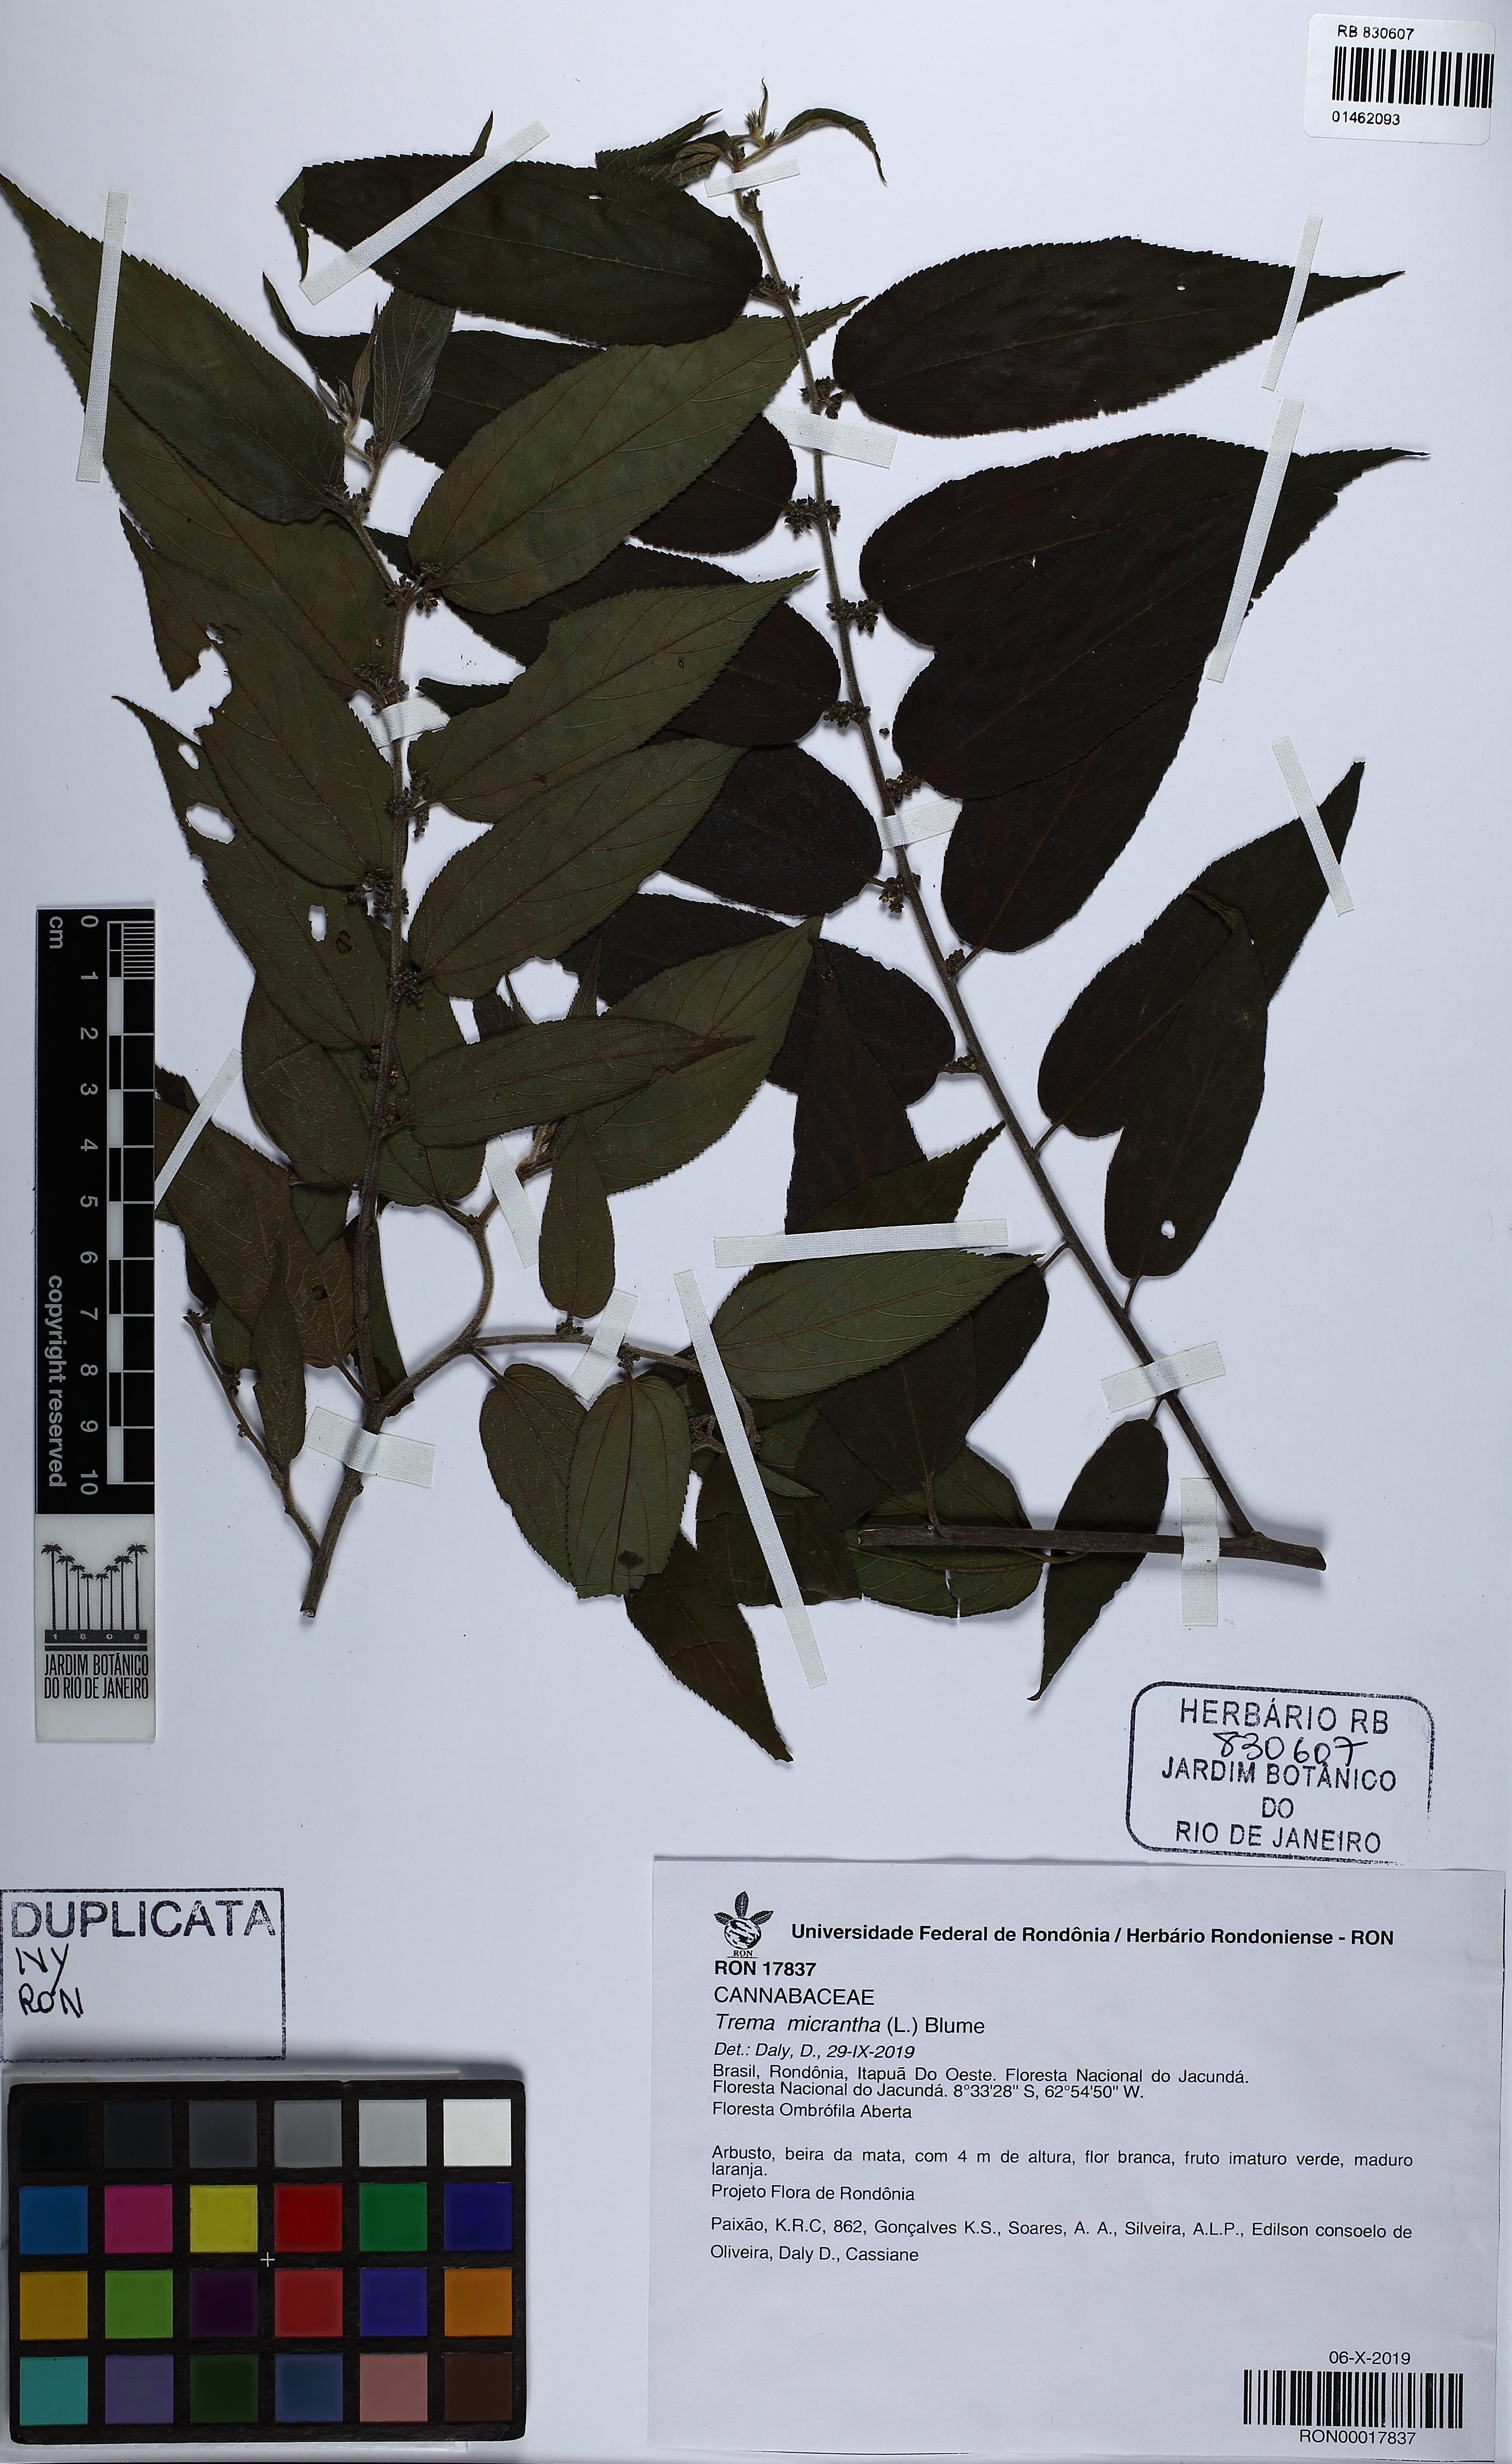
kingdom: Plantae
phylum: Tracheophyta
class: Magnoliopsida
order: Rosales
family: Cannabaceae
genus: Trema
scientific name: Trema micranthum
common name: Jamaican nettletree
